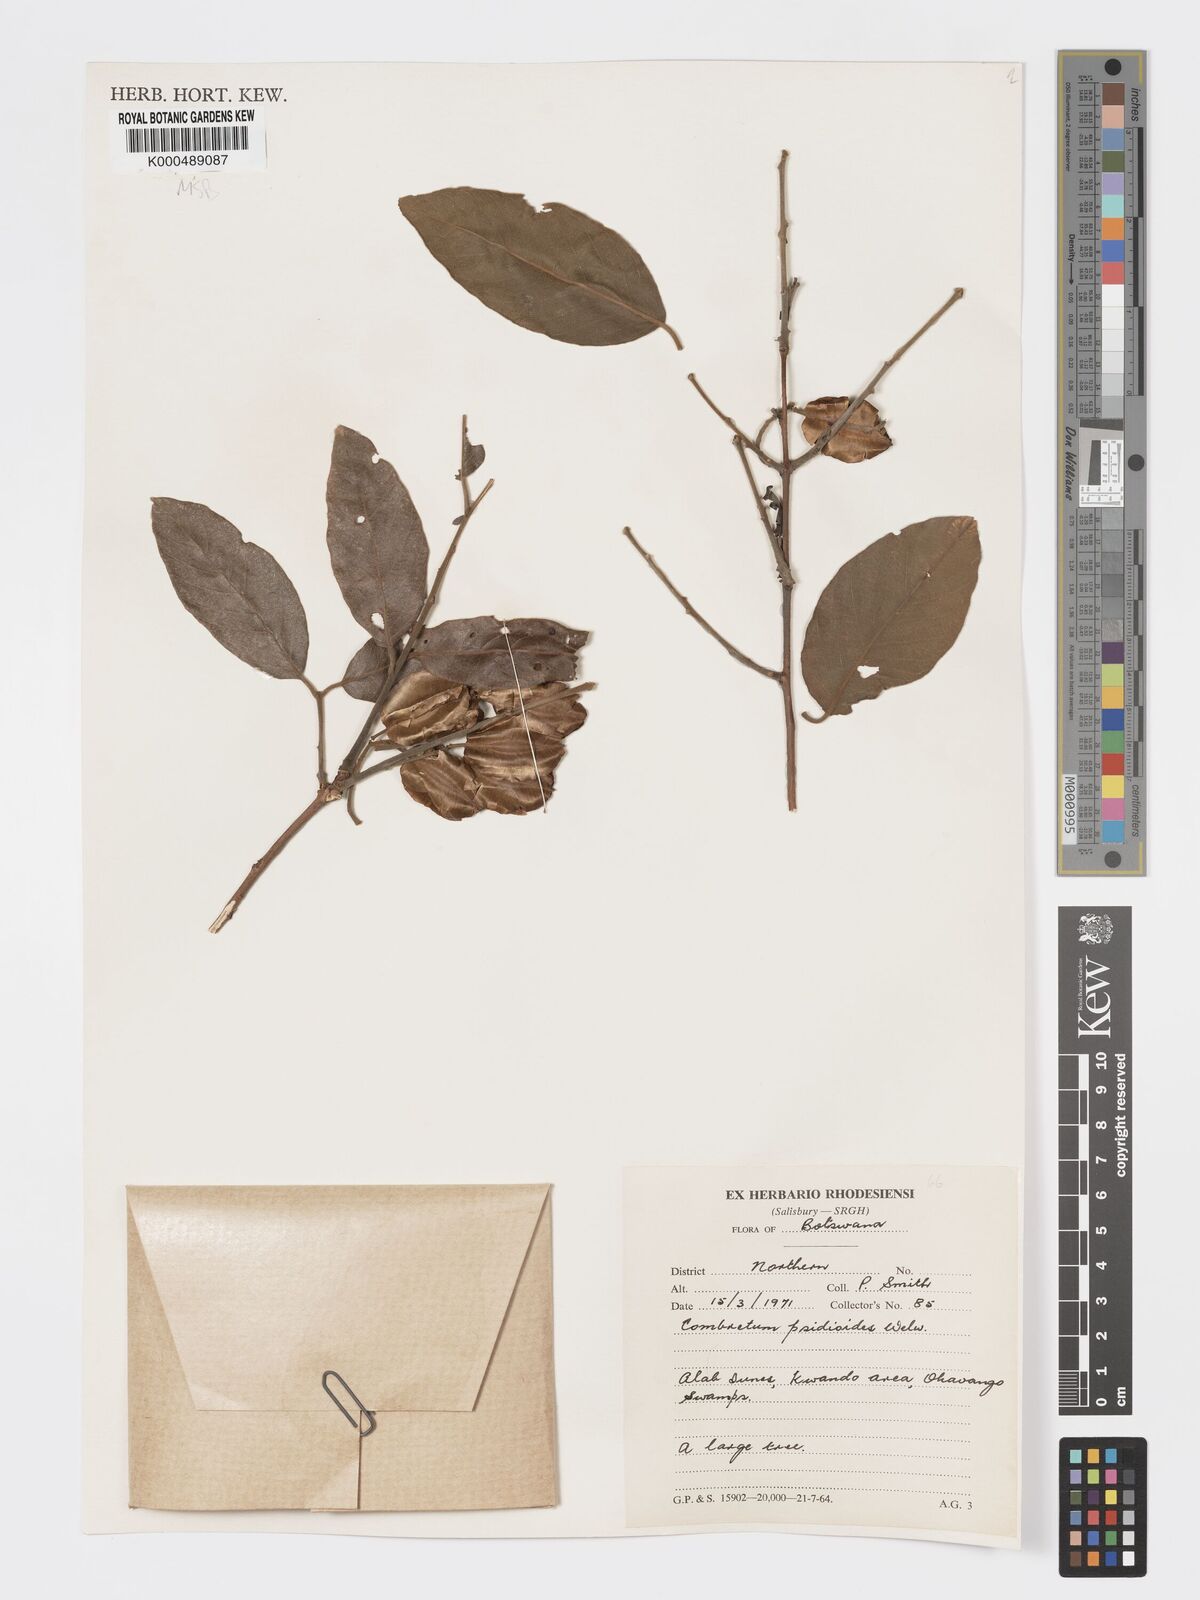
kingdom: Plantae
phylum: Tracheophyta
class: Magnoliopsida
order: Myrtales
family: Combretaceae
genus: Terminalia
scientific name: Terminalia
